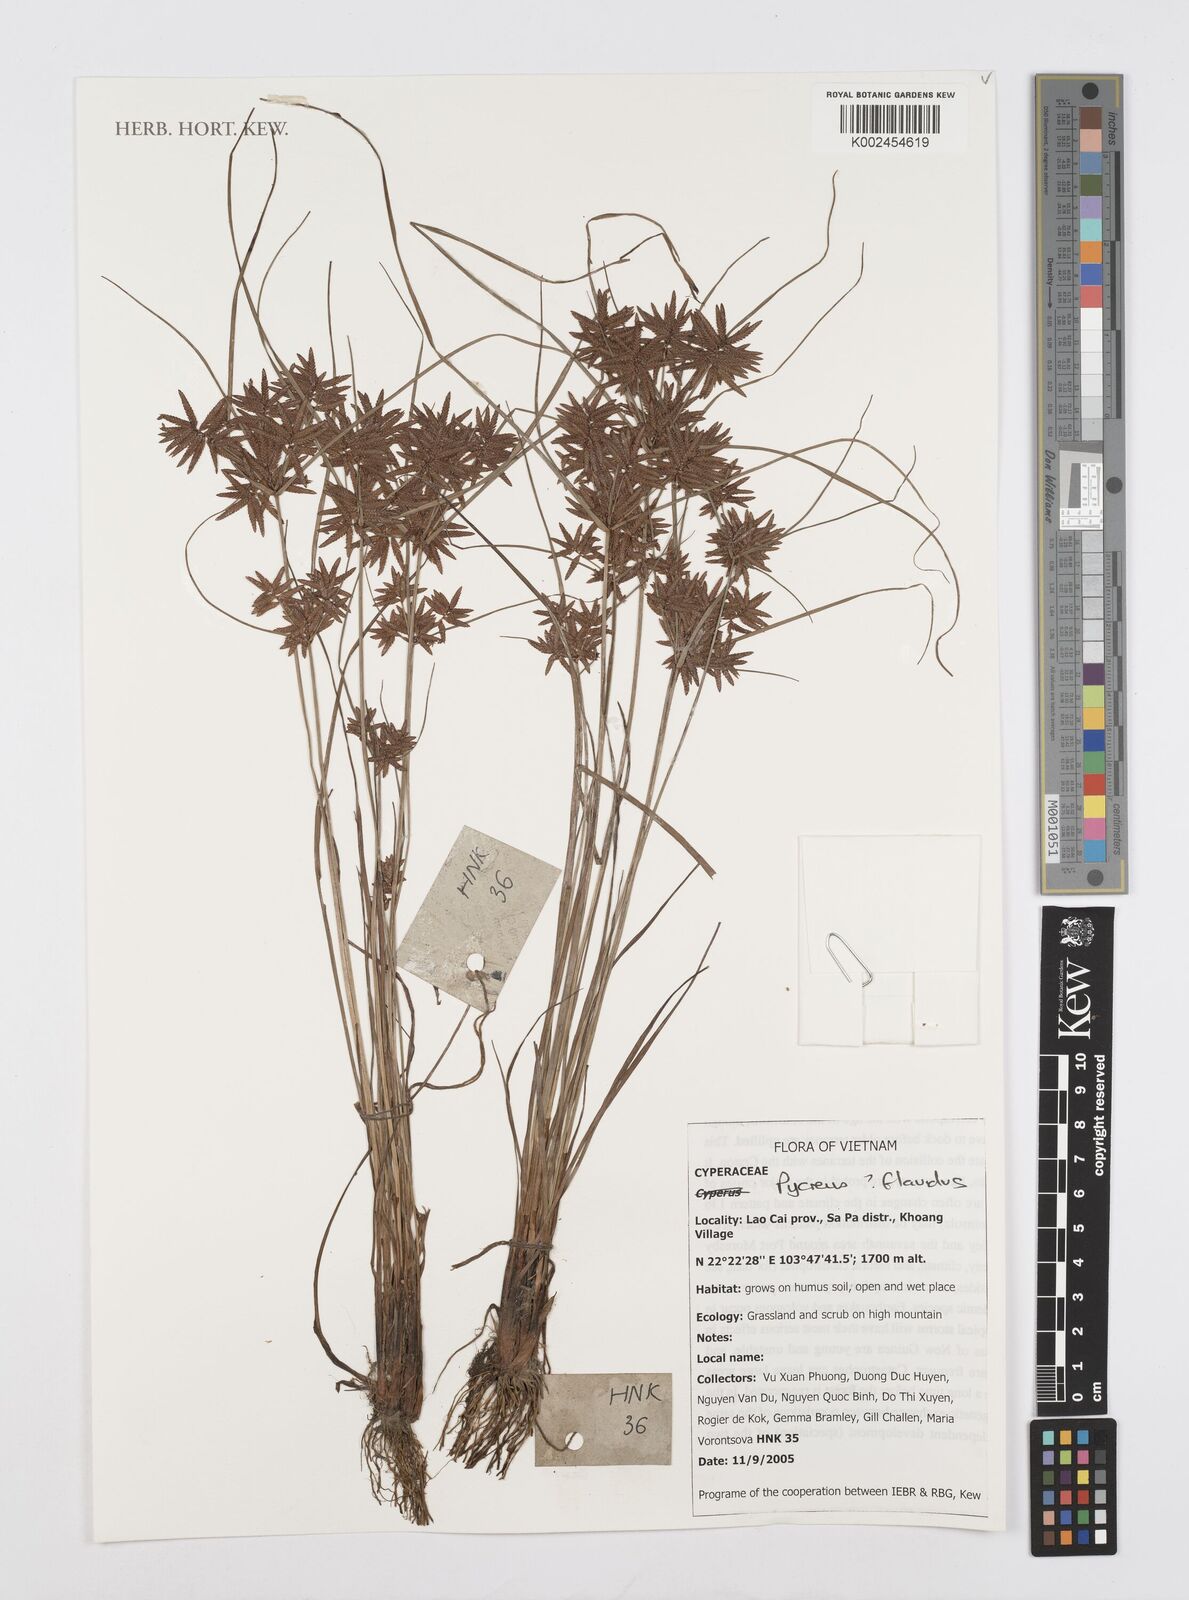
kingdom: Plantae
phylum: Tracheophyta
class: Liliopsida
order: Poales
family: Cyperaceae
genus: Cyperus
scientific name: Cyperus
